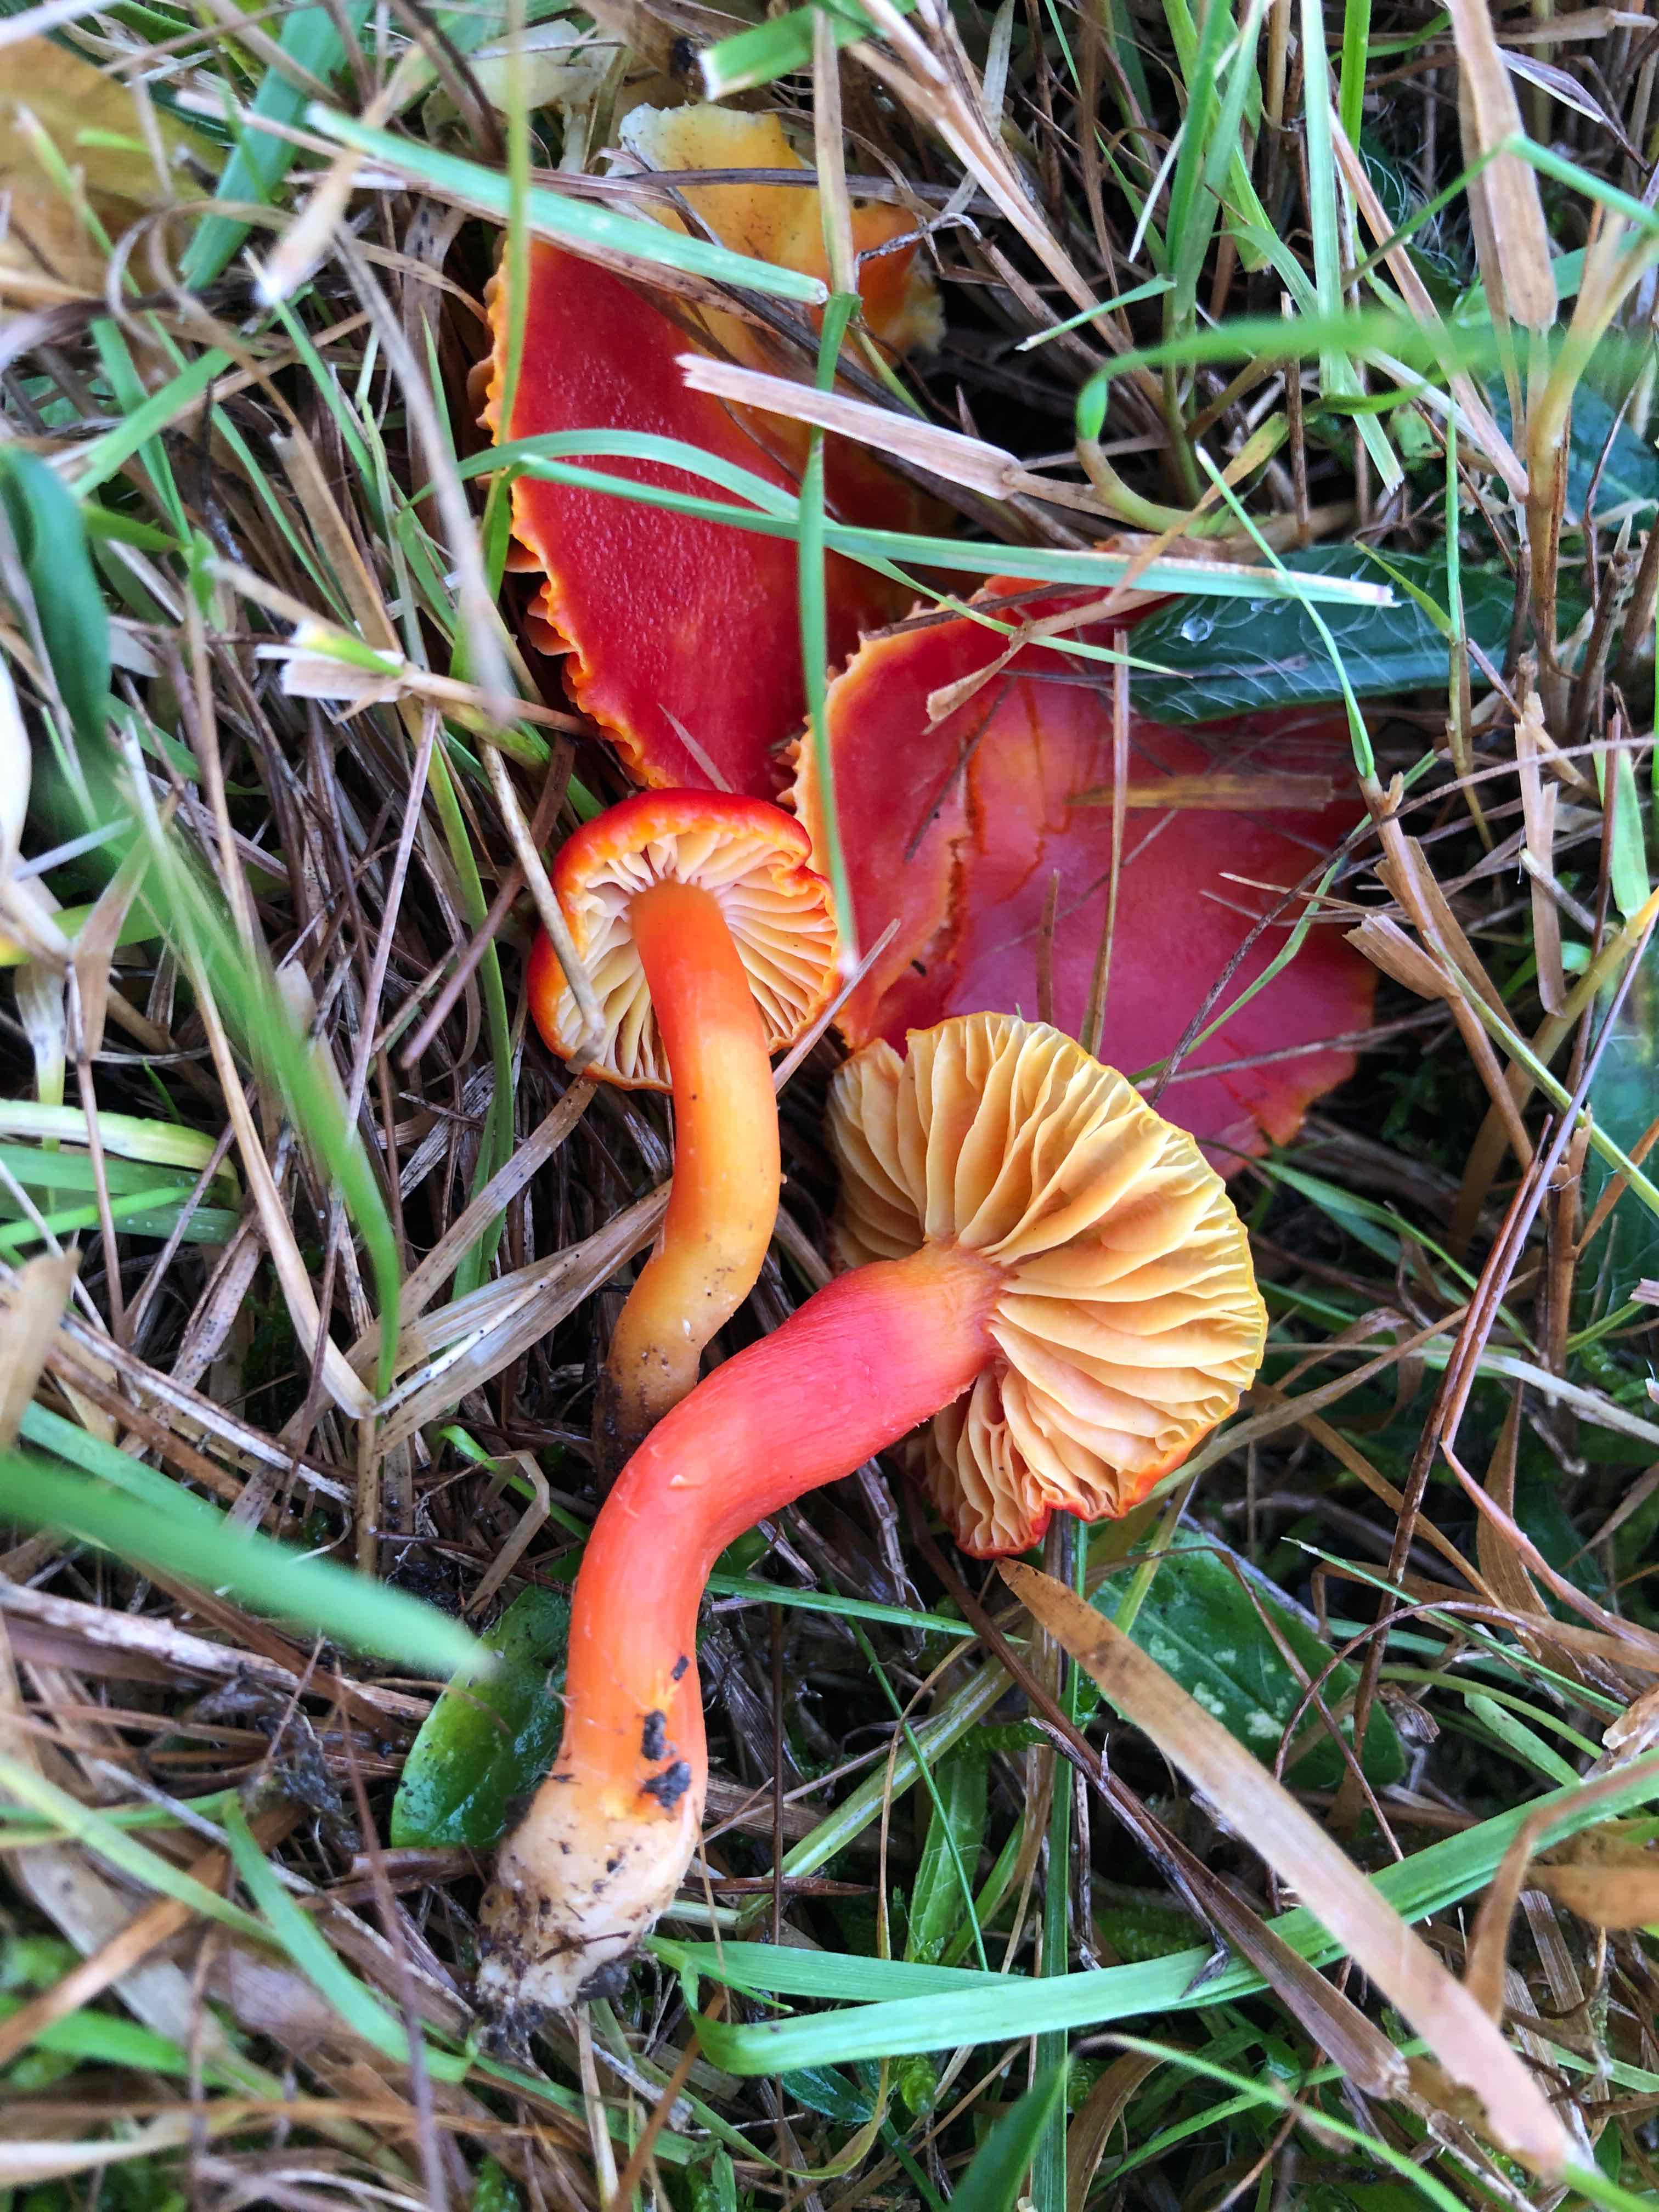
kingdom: Fungi
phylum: Basidiomycota
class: Agaricomycetes
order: Agaricales
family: Hygrophoraceae
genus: Hygrocybe
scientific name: Hygrocybe coccinea
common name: cinnober-vokshat
